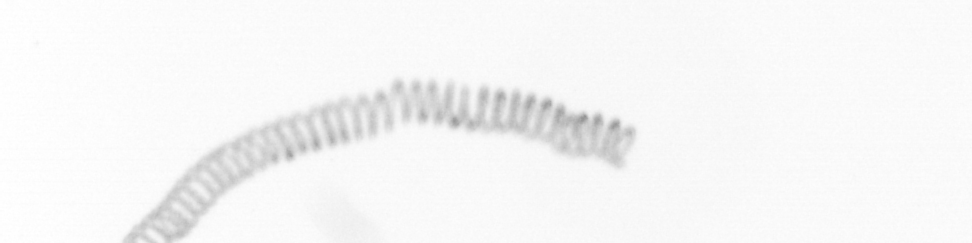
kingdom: Chromista
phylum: Ochrophyta
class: Bacillariophyceae
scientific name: Bacillariophyceae
